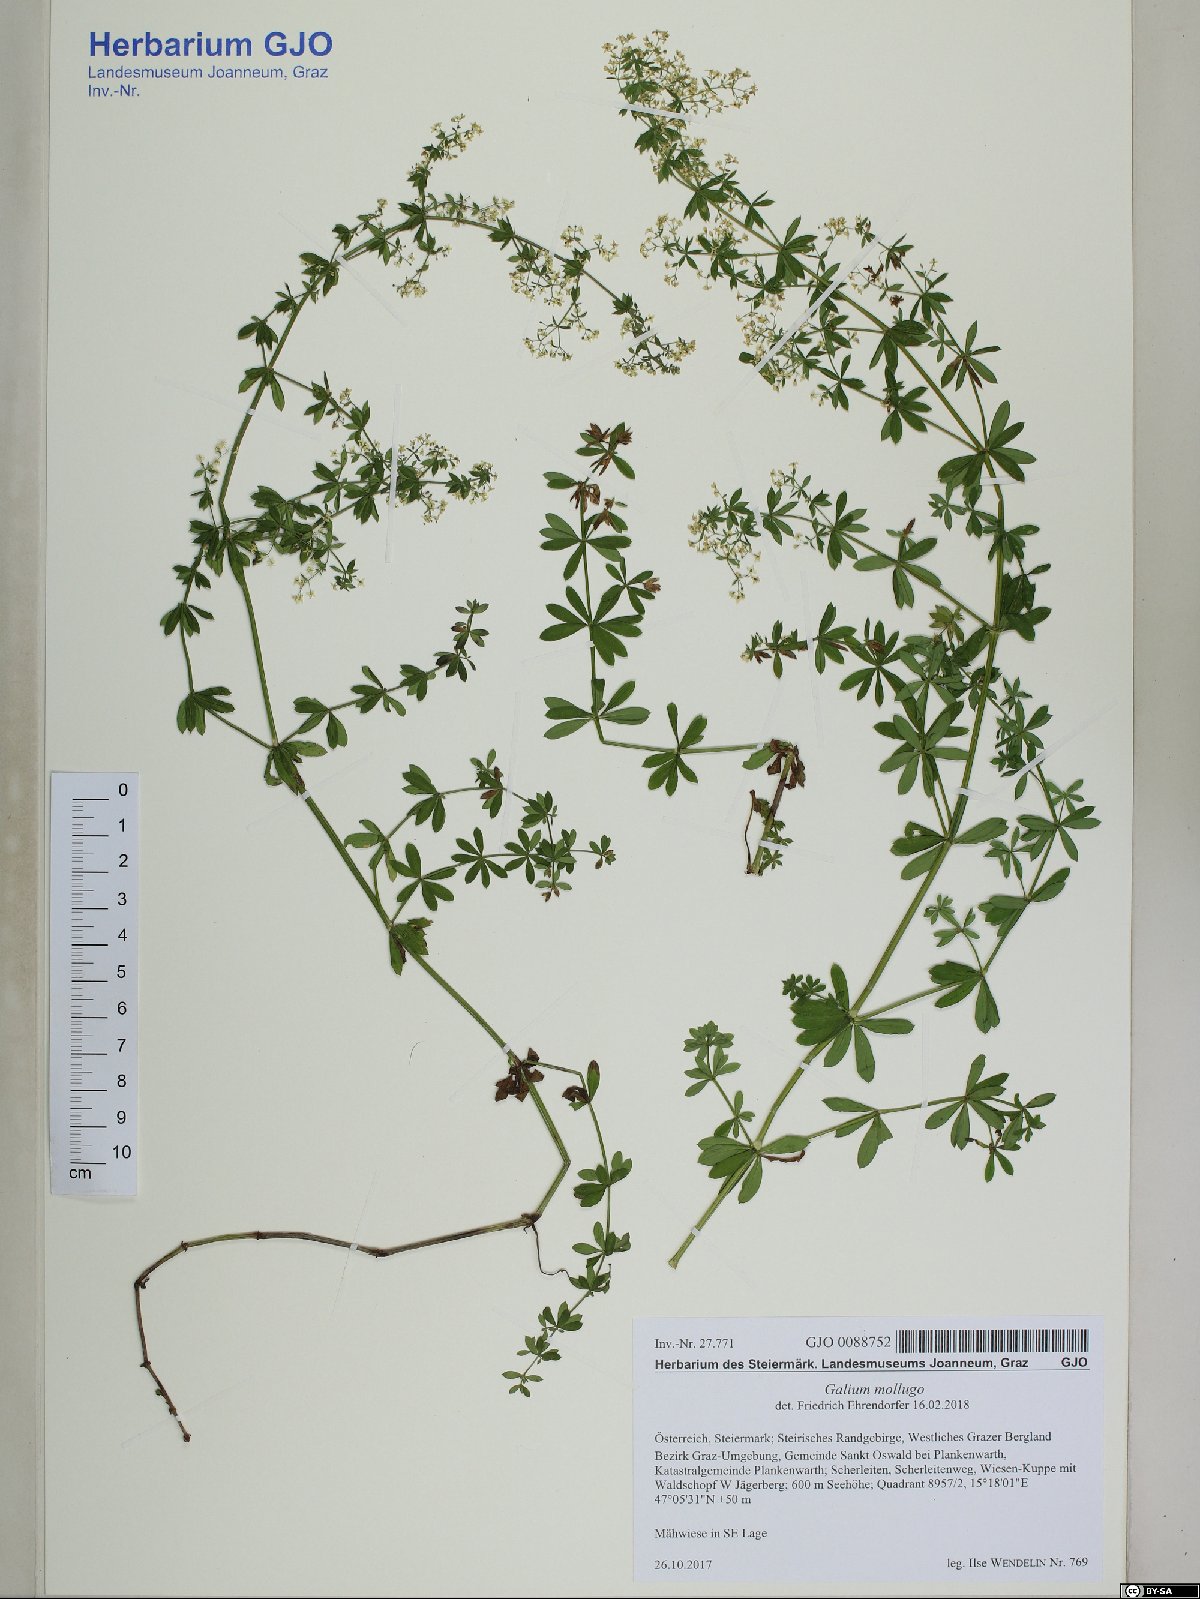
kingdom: Plantae
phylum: Tracheophyta
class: Magnoliopsida
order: Gentianales
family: Rubiaceae
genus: Galium
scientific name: Galium mollugo
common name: Hedge bedstraw
